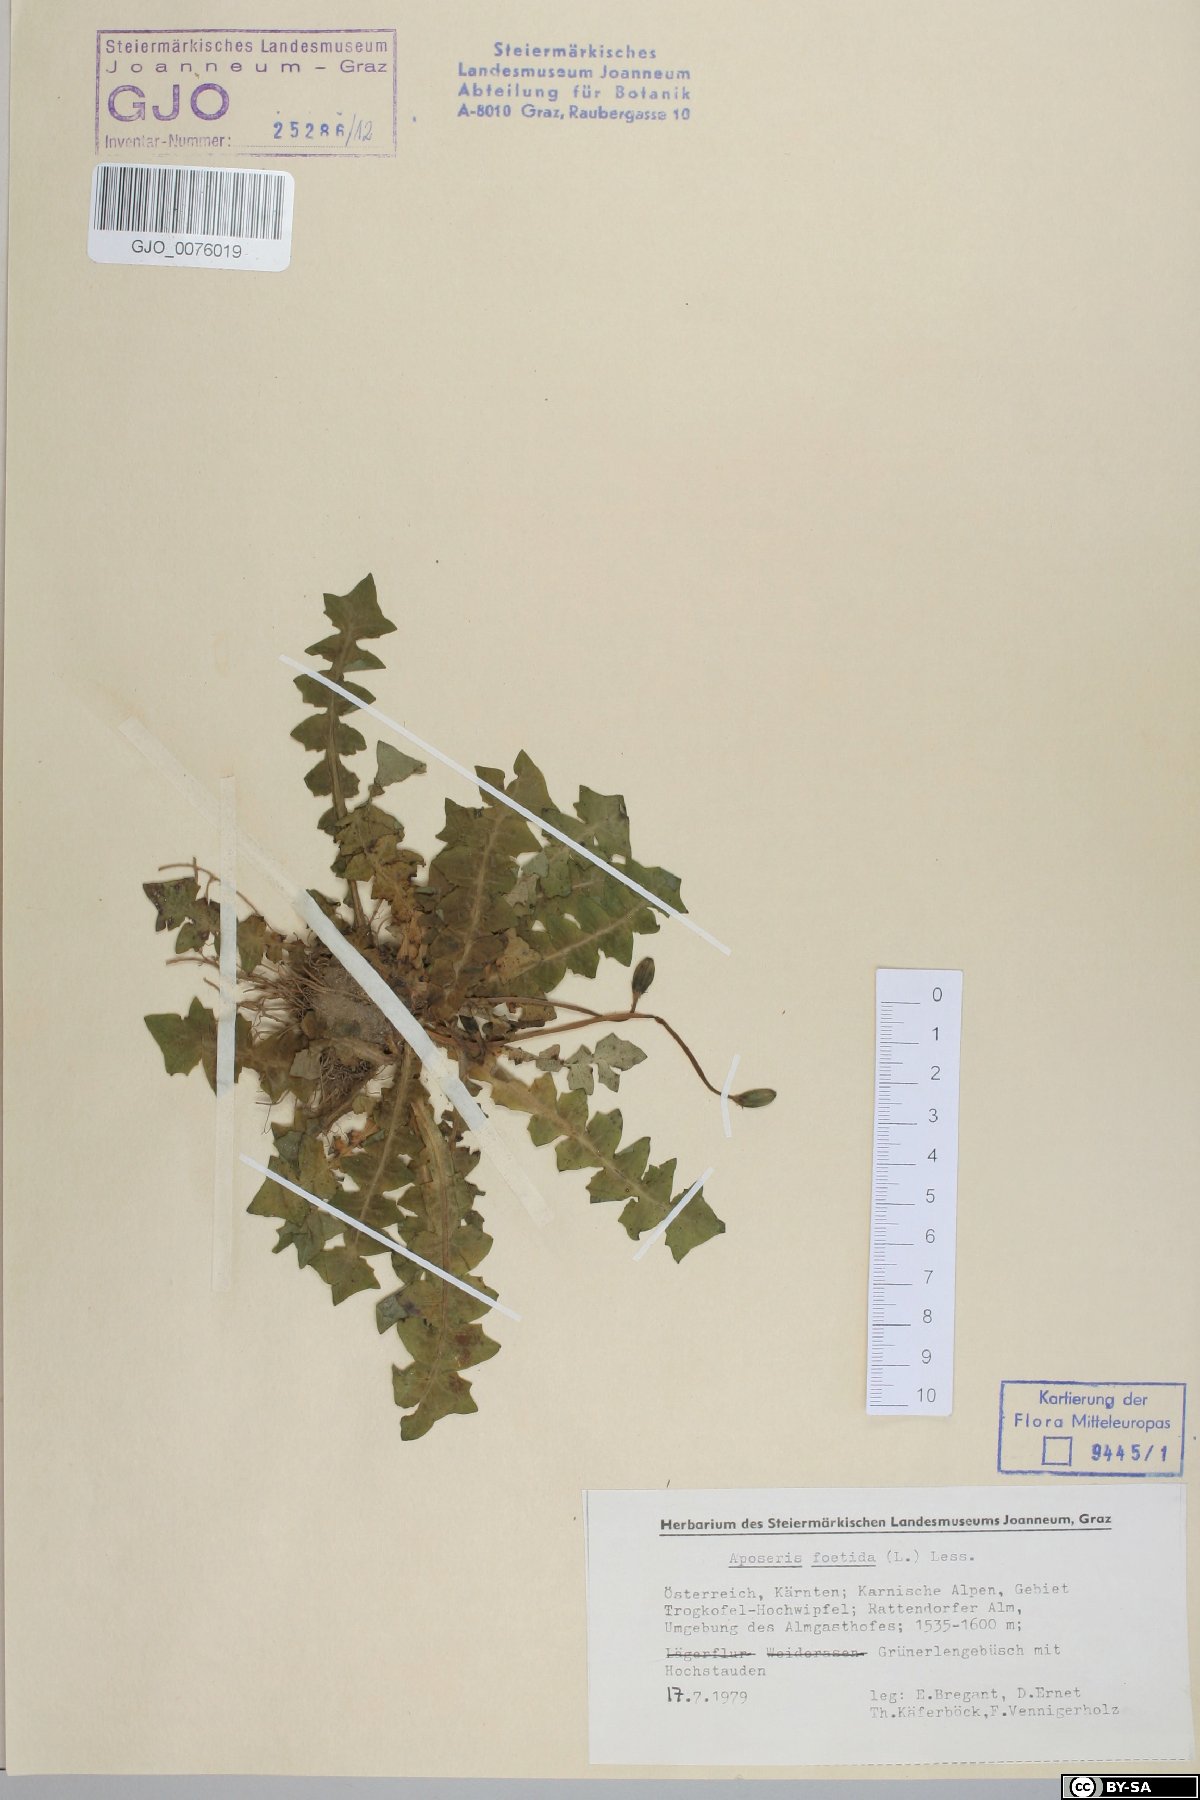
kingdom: Plantae
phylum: Tracheophyta
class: Magnoliopsida
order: Asterales
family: Asteraceae
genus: Aposeris
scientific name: Aposeris foetida
